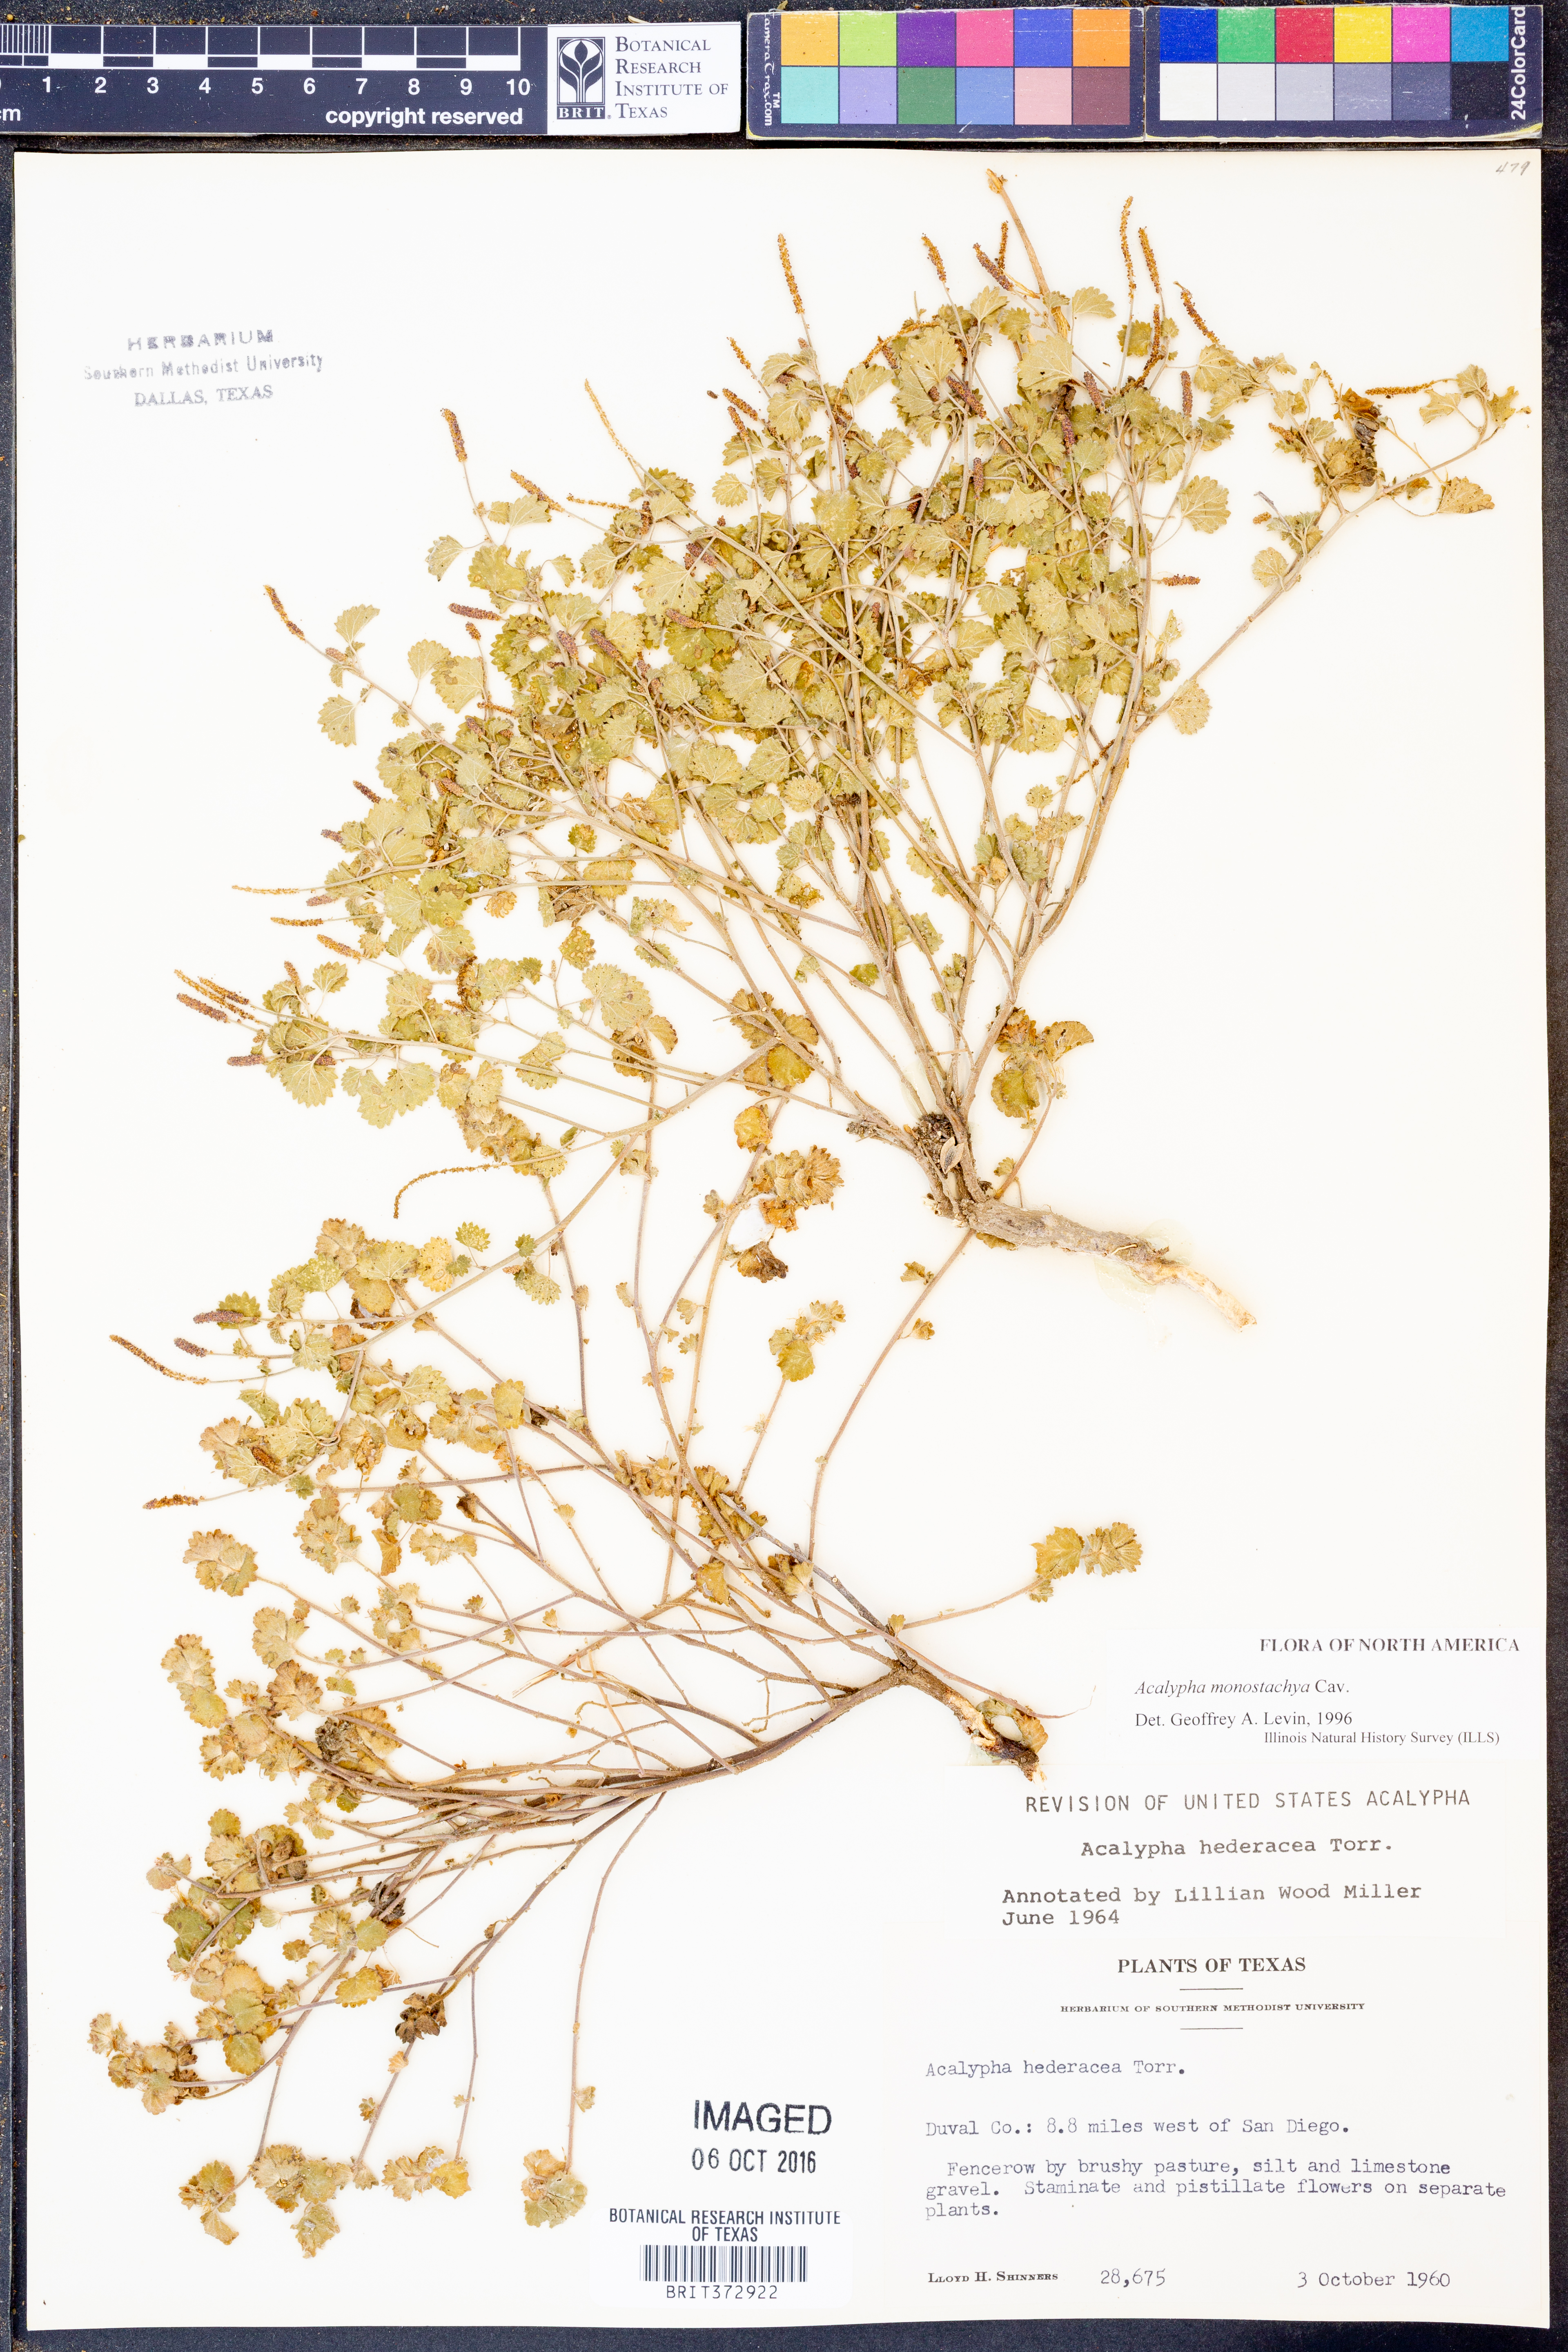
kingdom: Plantae
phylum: Tracheophyta
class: Magnoliopsida
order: Malpighiales
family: Euphorbiaceae
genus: Acalypha
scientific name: Acalypha monostachya
